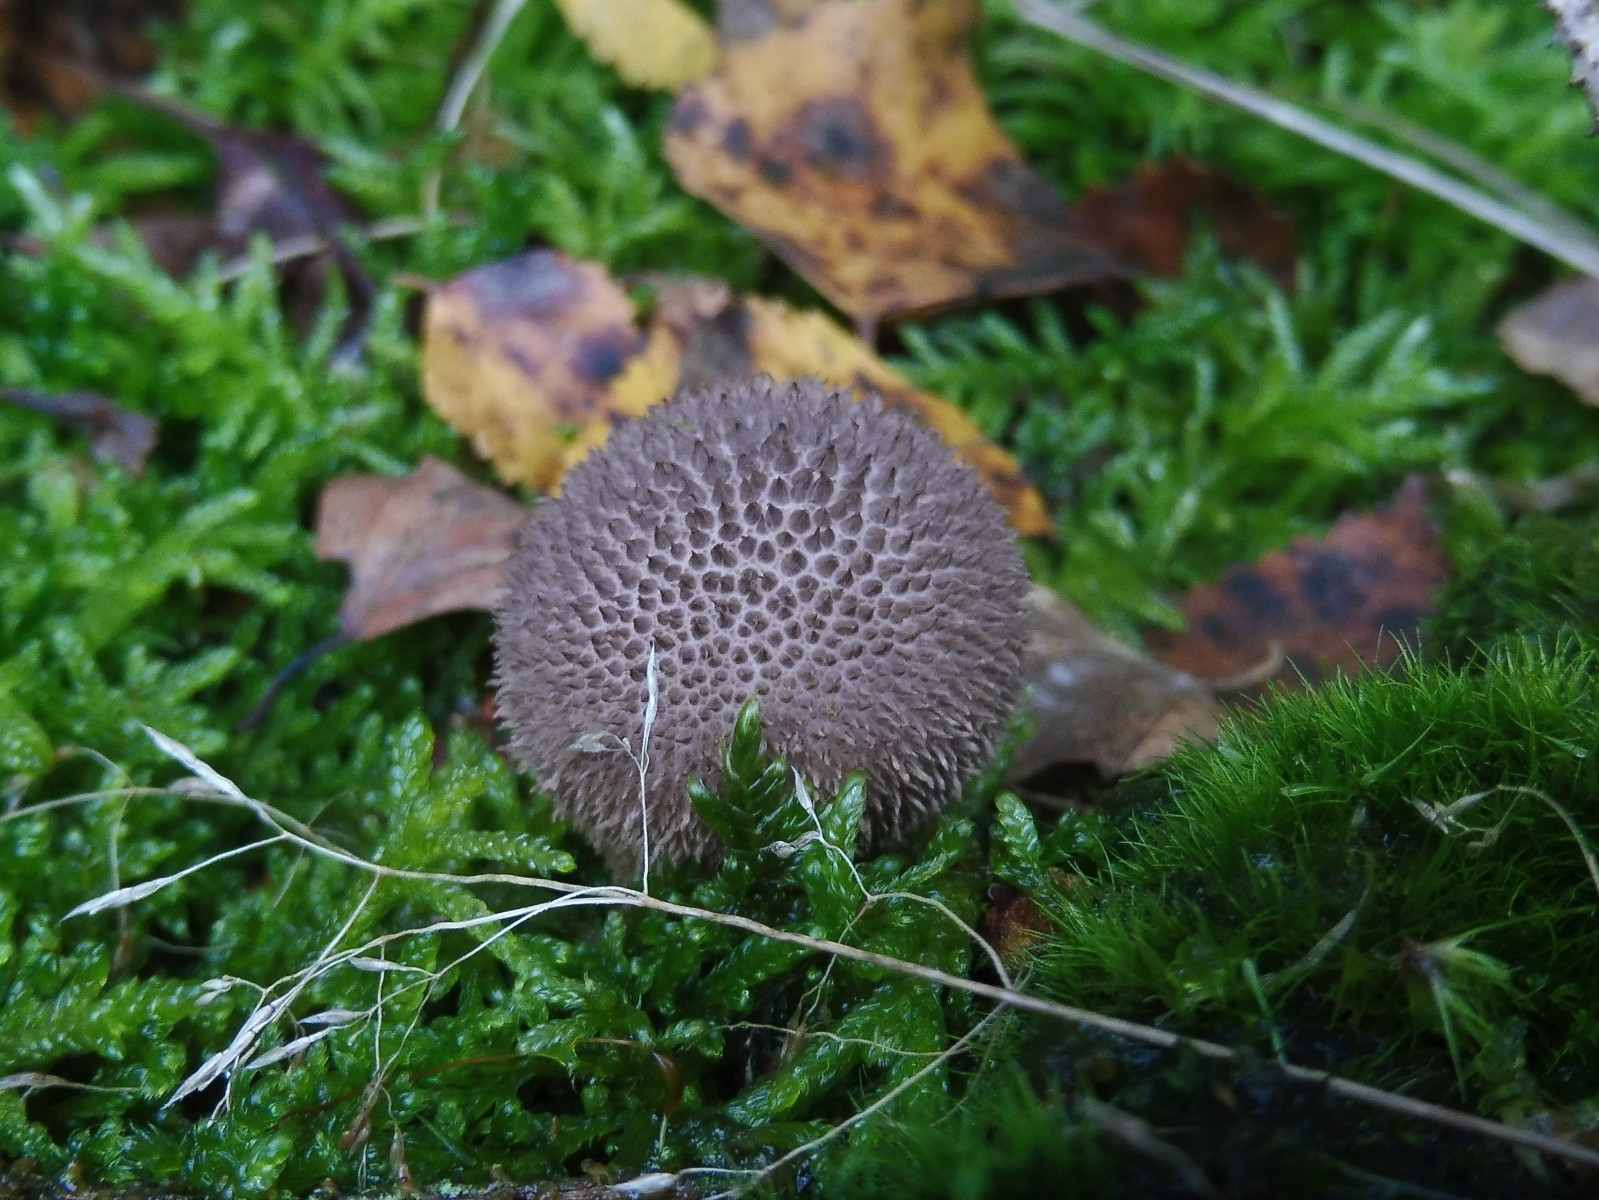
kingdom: Fungi
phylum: Basidiomycota
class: Agaricomycetes
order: Agaricales
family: Lycoperdaceae
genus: Lycoperdon
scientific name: Lycoperdon nigrescens
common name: sortagtig støvbold
